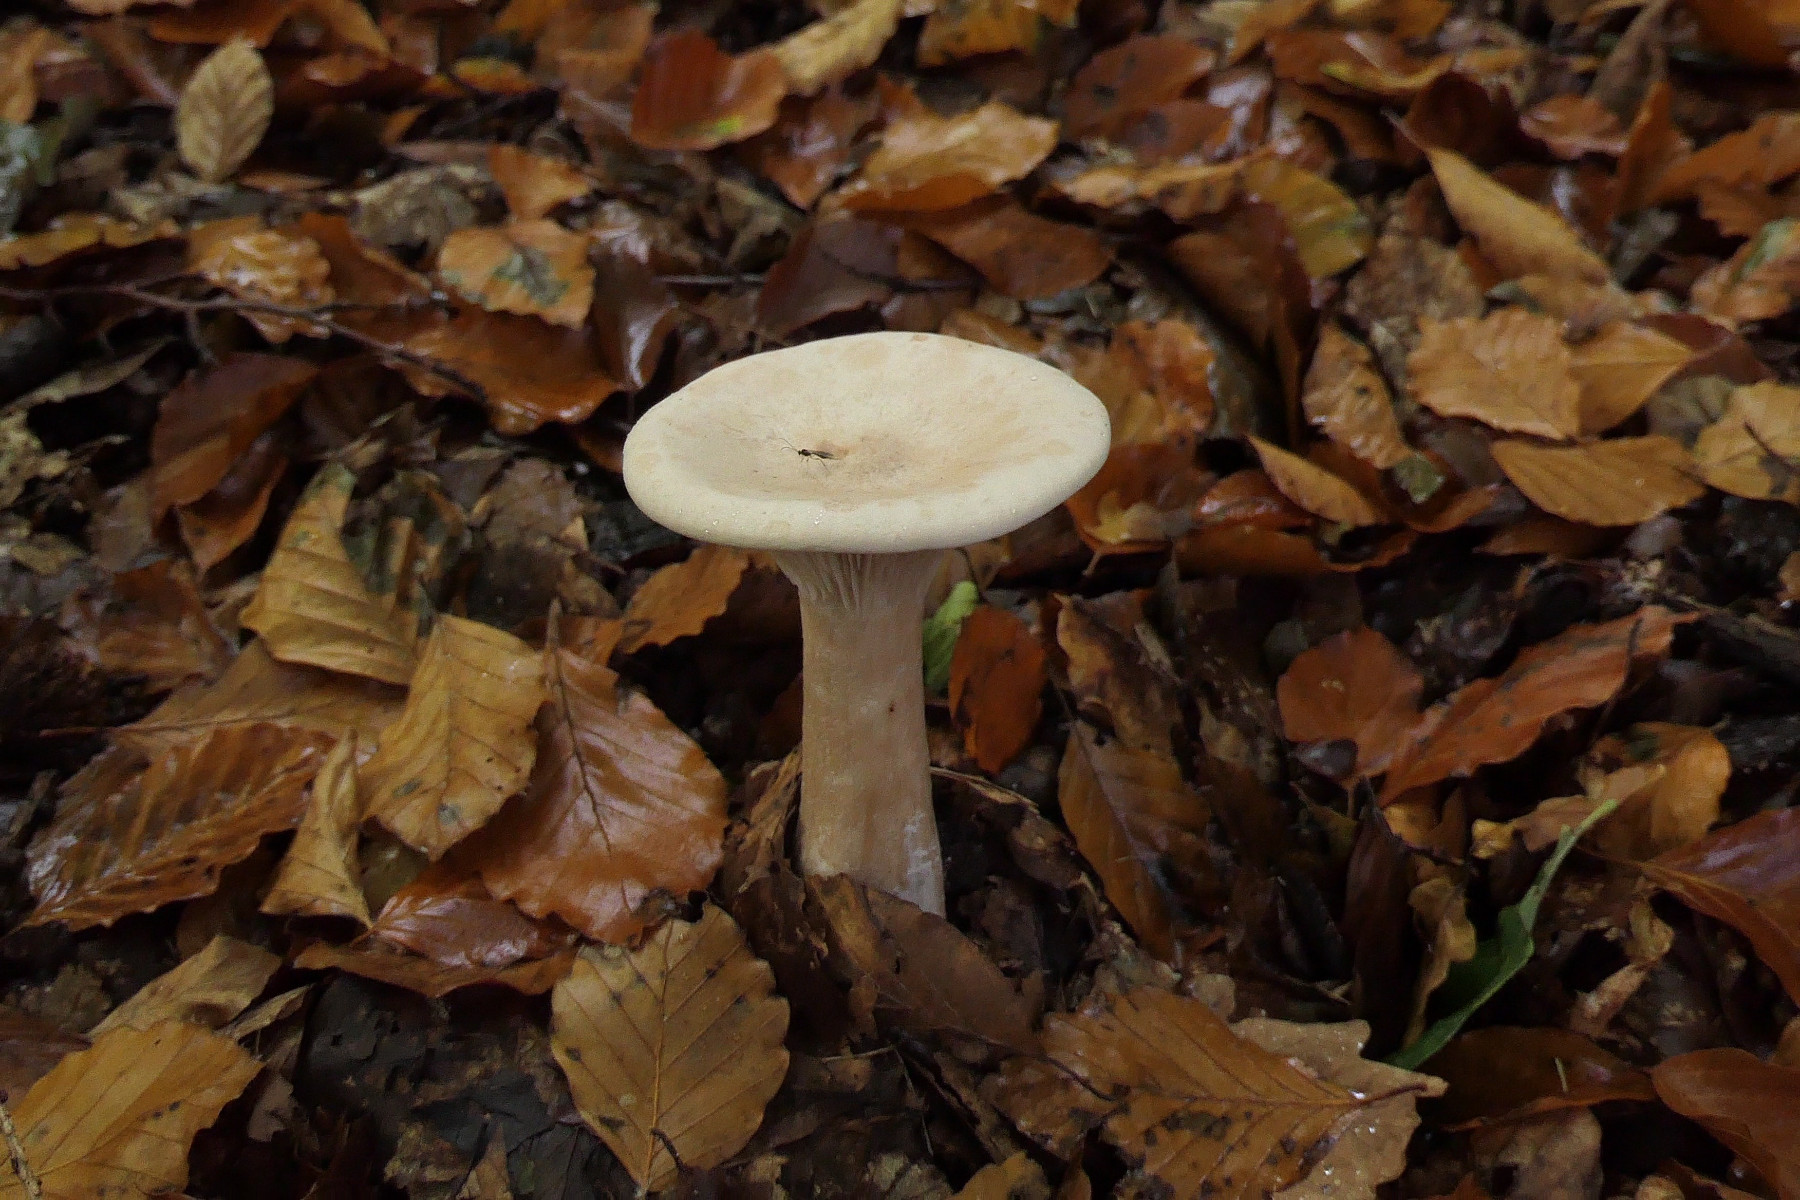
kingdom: Fungi
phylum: Basidiomycota
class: Agaricomycetes
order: Agaricales
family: Tricholomataceae
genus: Infundibulicybe
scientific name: Infundibulicybe geotropa
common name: stor tragthat
